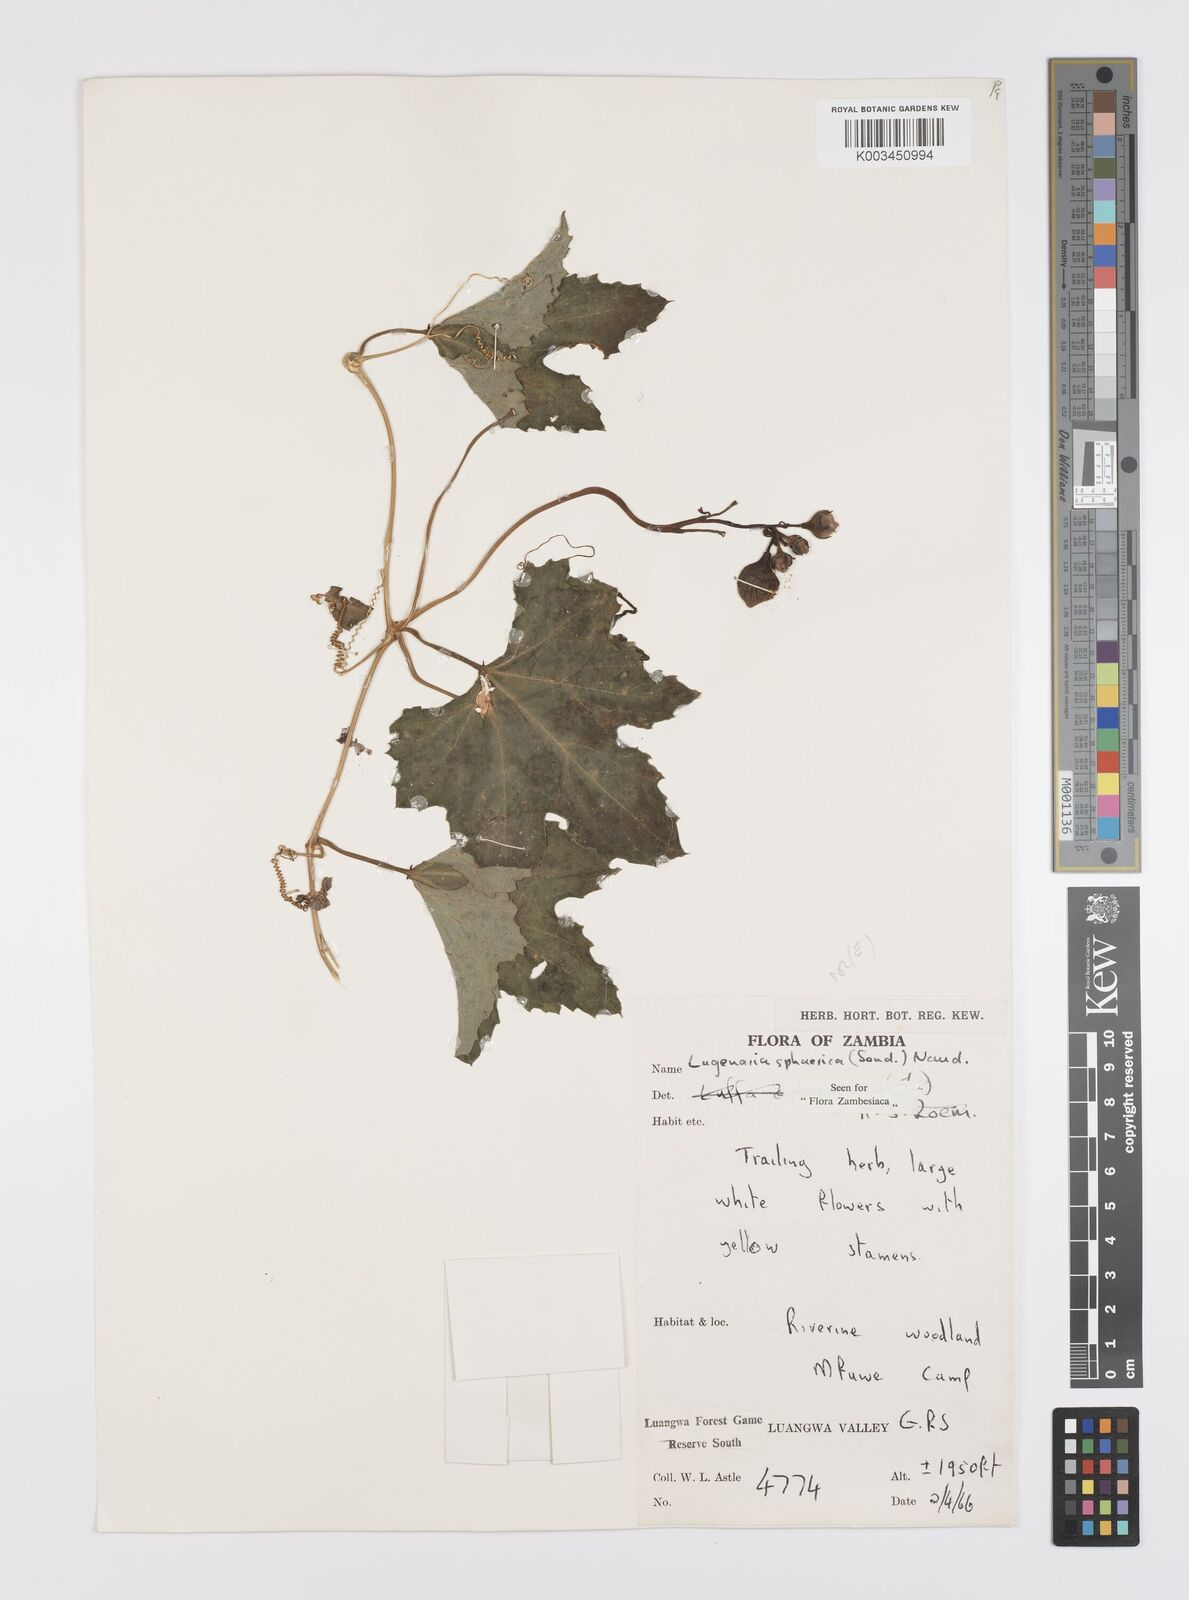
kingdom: Plantae
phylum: Tracheophyta
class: Magnoliopsida
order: Cucurbitales
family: Cucurbitaceae
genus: Lagenaria
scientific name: Lagenaria sphaerica
